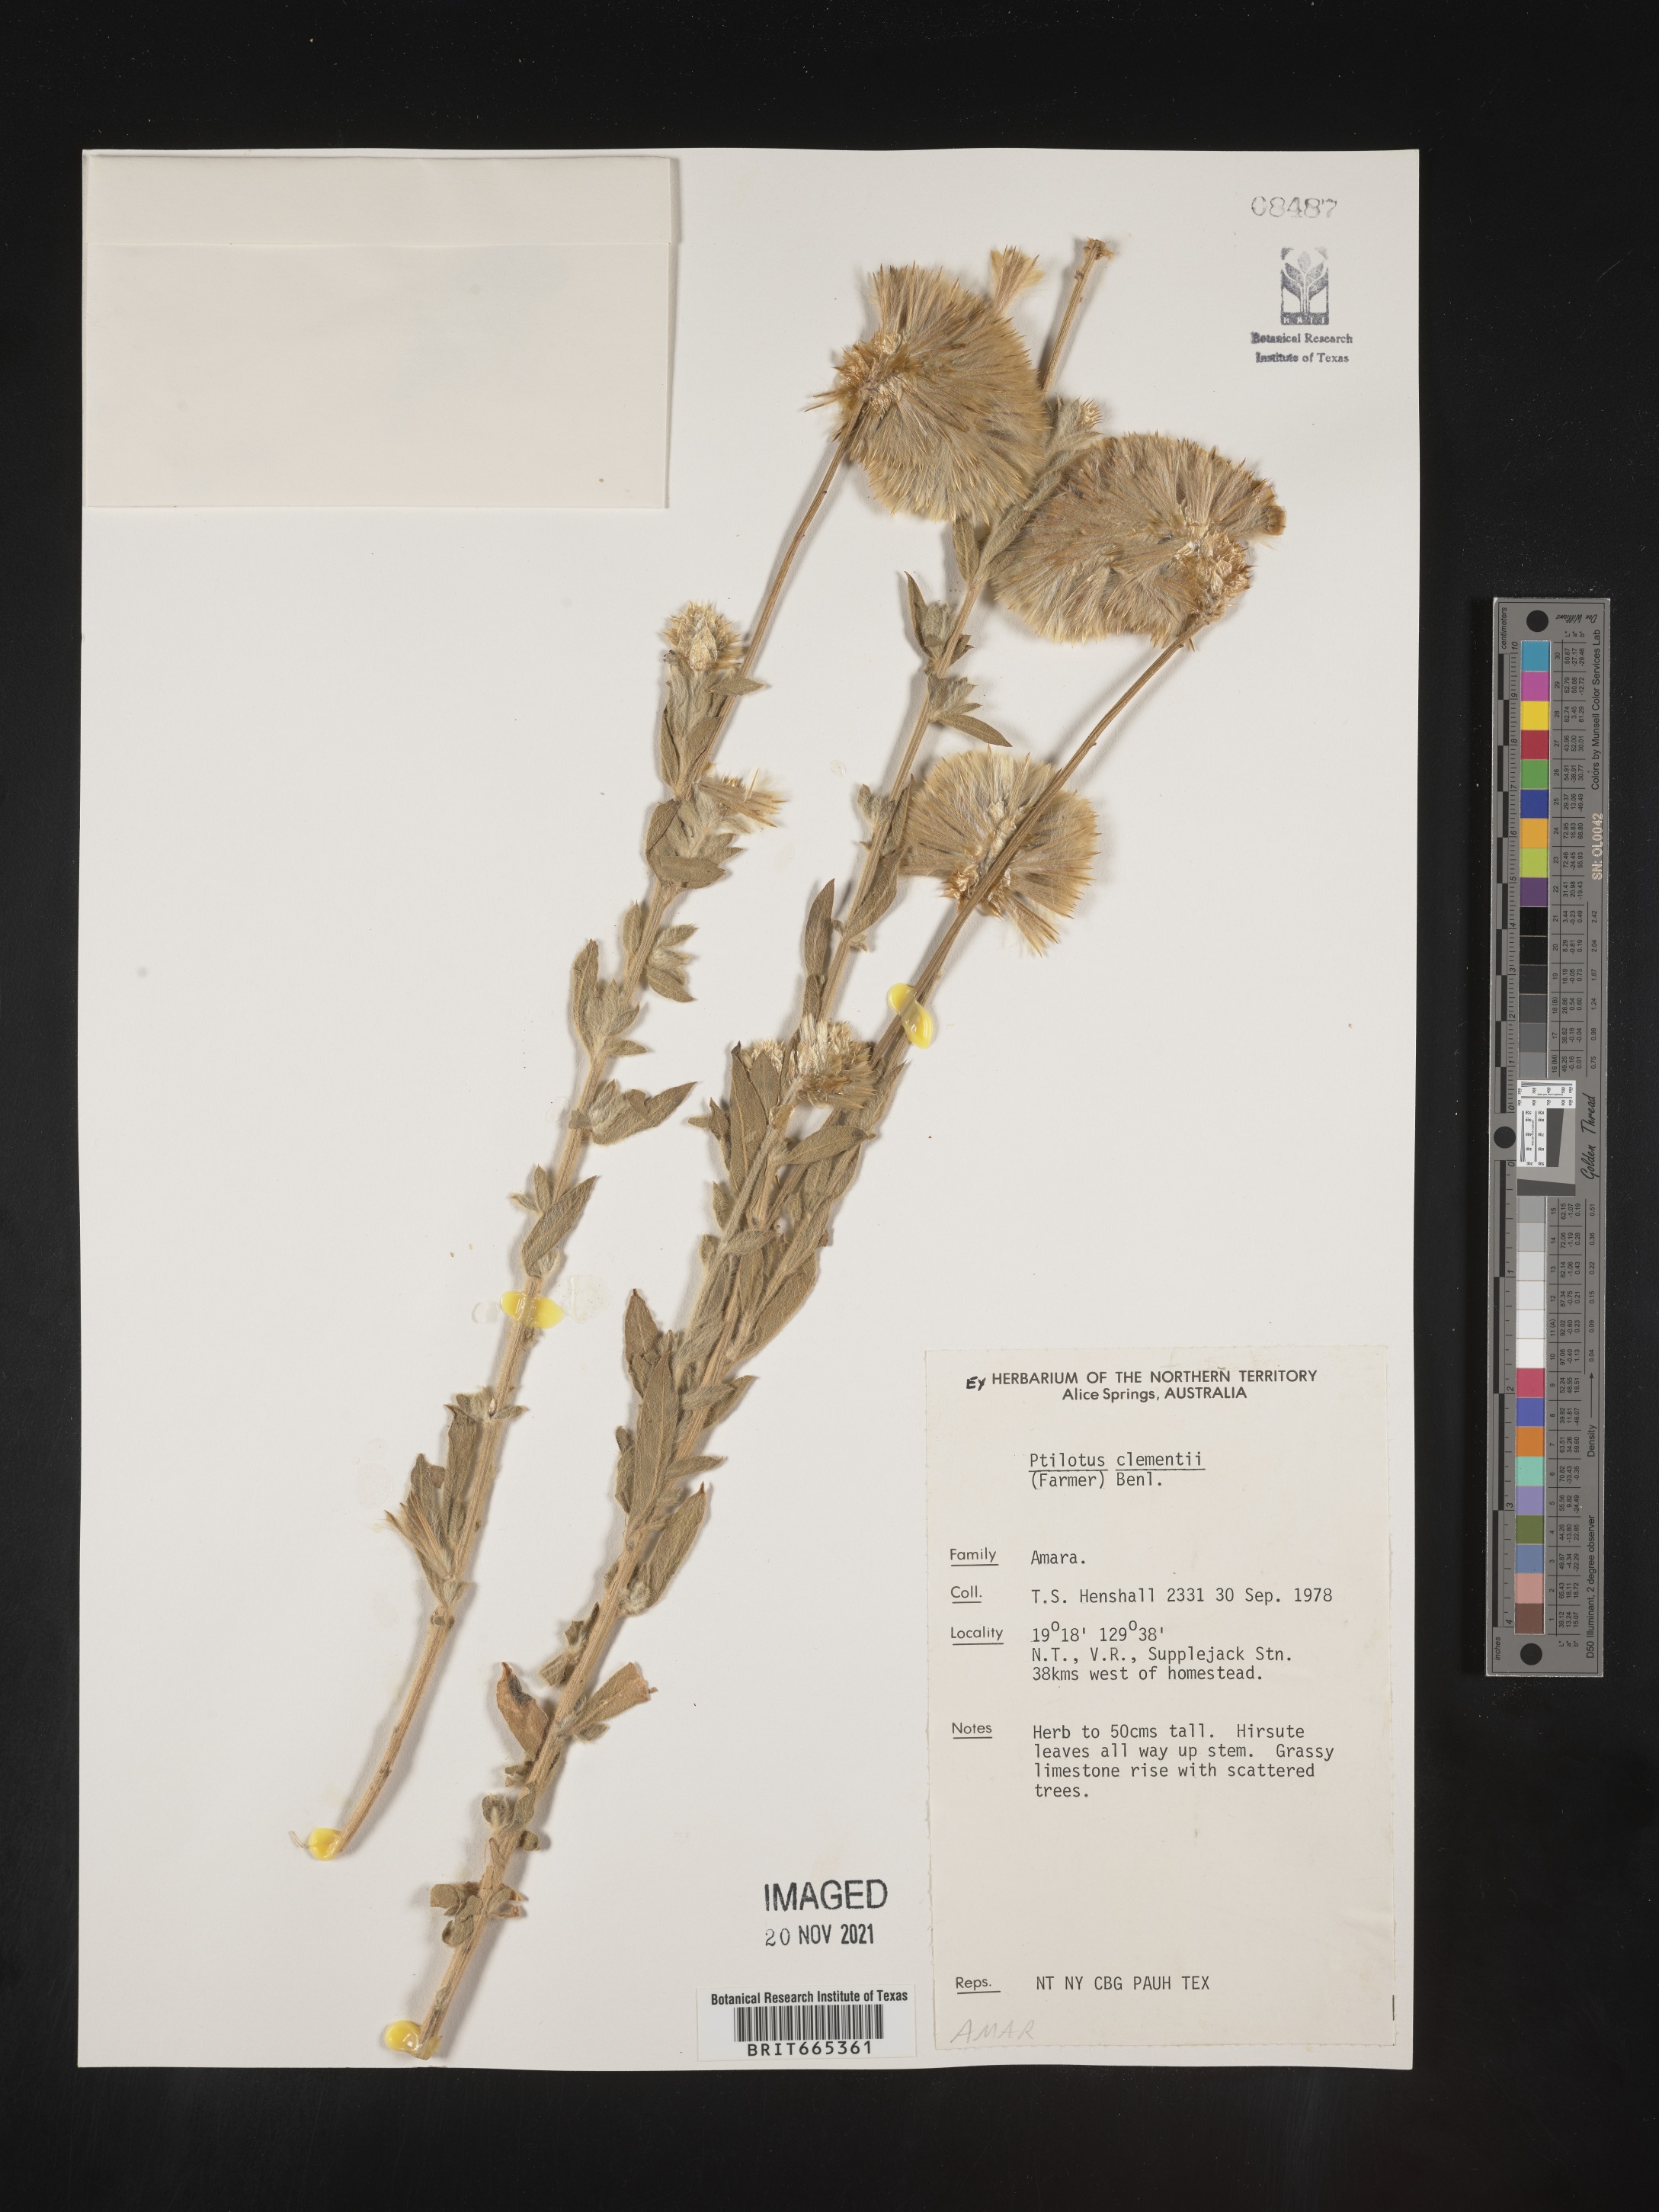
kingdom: Plantae
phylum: Tracheophyta
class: Magnoliopsida
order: Caryophyllales
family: Amaranthaceae
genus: Ptilotus
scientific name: Ptilotus
